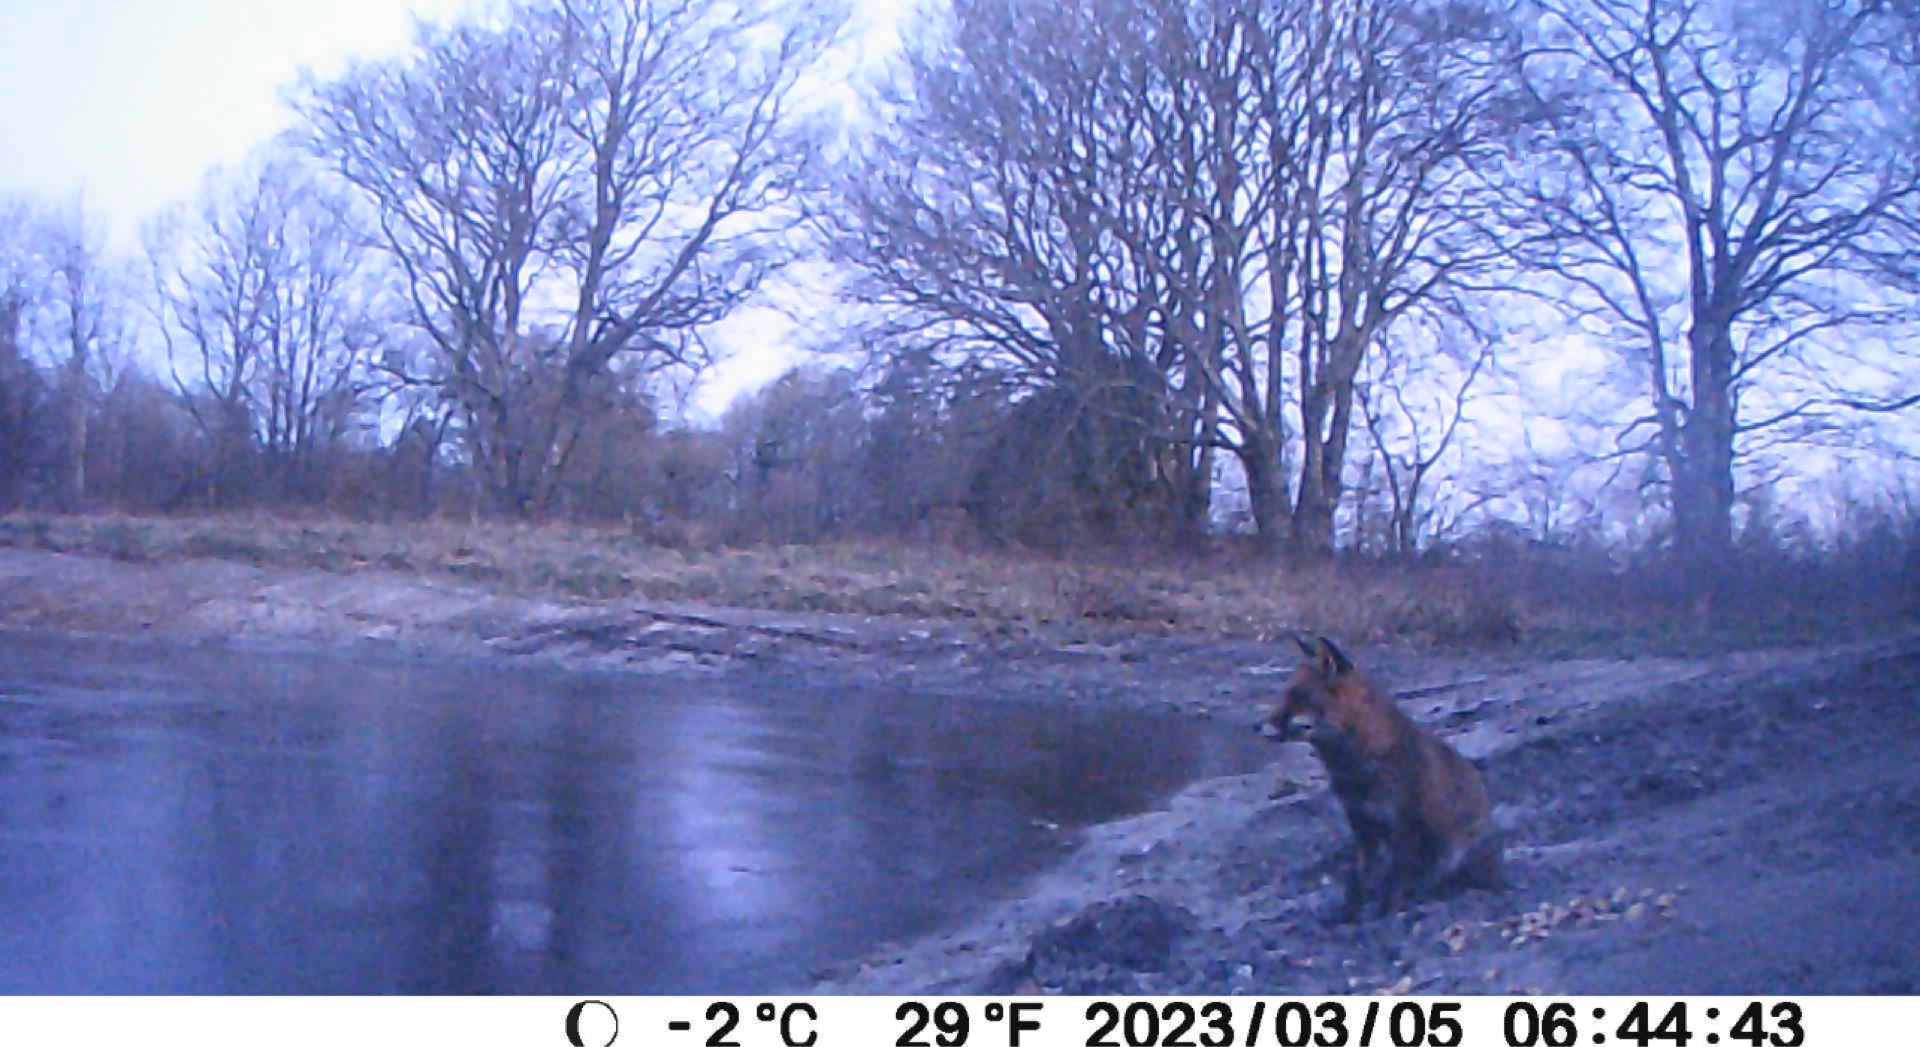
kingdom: Animalia
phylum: Chordata
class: Mammalia
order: Carnivora
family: Canidae
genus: Vulpes
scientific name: Vulpes vulpes
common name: Ræv
